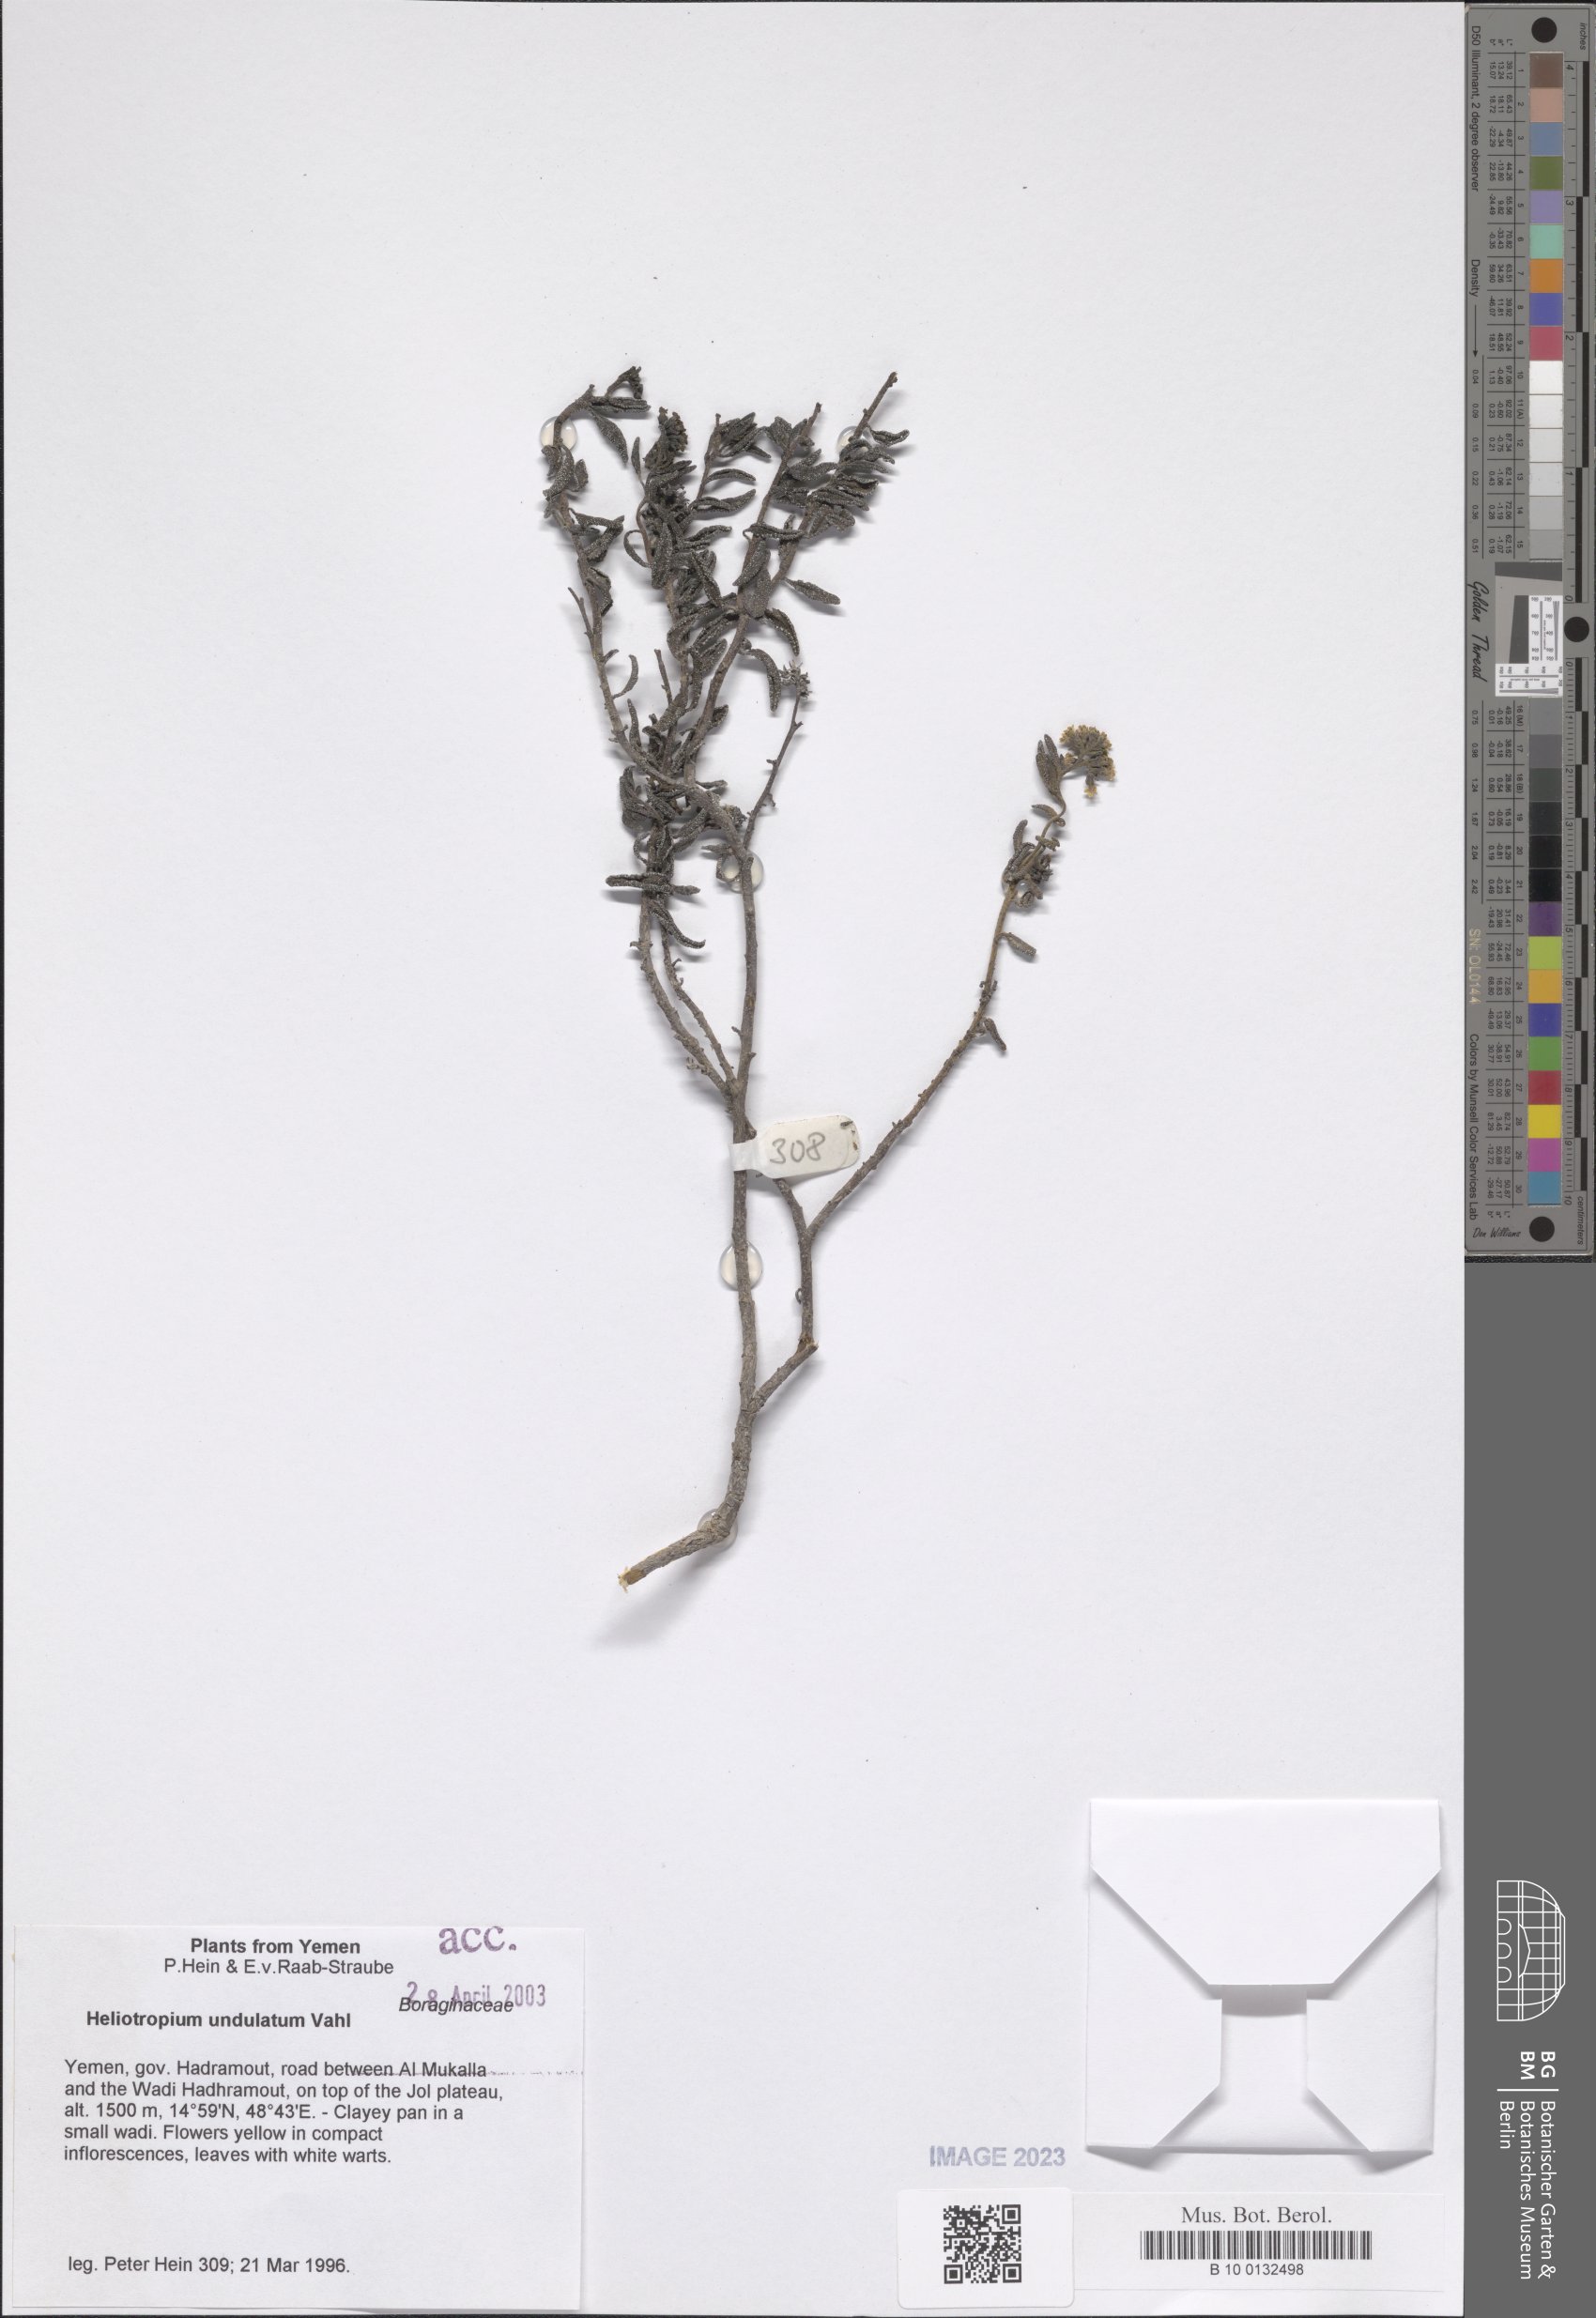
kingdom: Plantae
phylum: Tracheophyta
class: Magnoliopsida
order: Boraginales
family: Heliotropiaceae
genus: Heliotropium
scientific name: Heliotropium bacciferum
